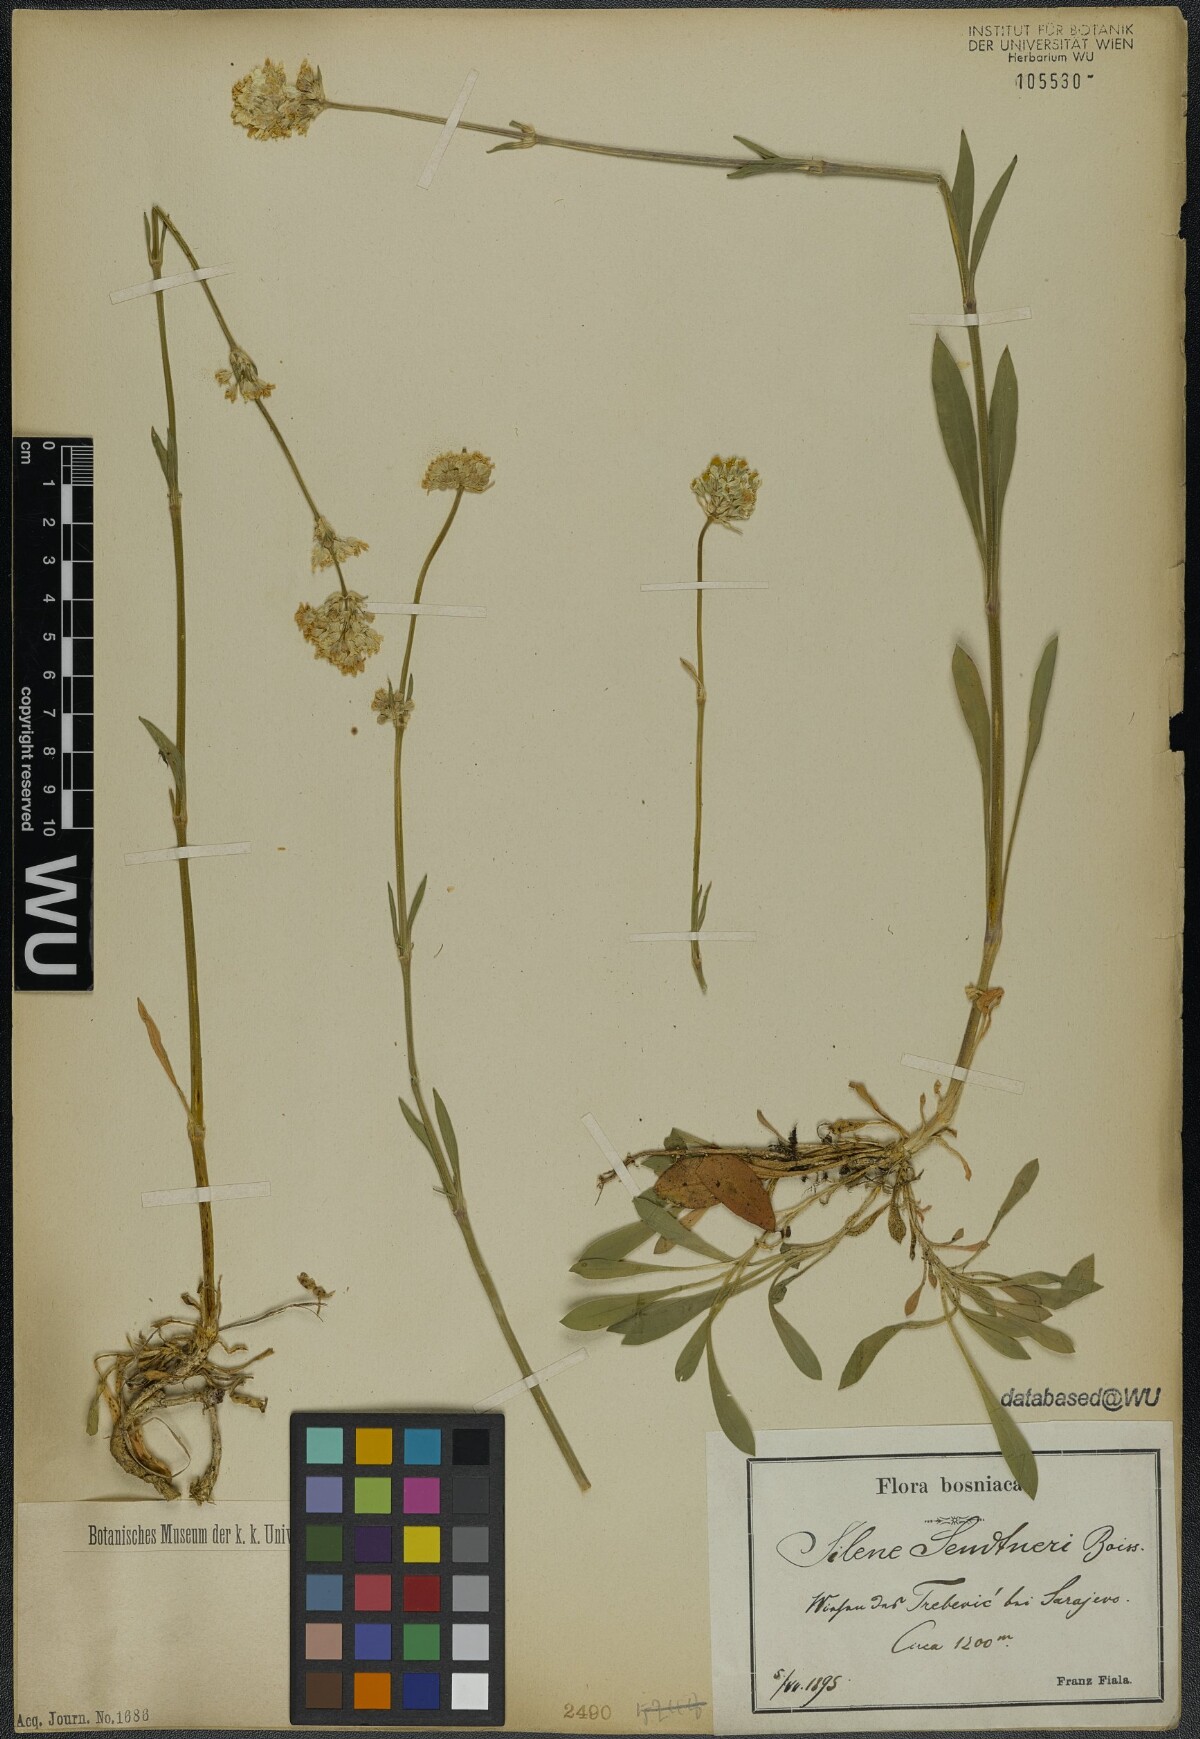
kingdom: Plantae
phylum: Tracheophyta
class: Magnoliopsida
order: Caryophyllales
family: Caryophyllaceae
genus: Silene
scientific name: Silene sendtneri
